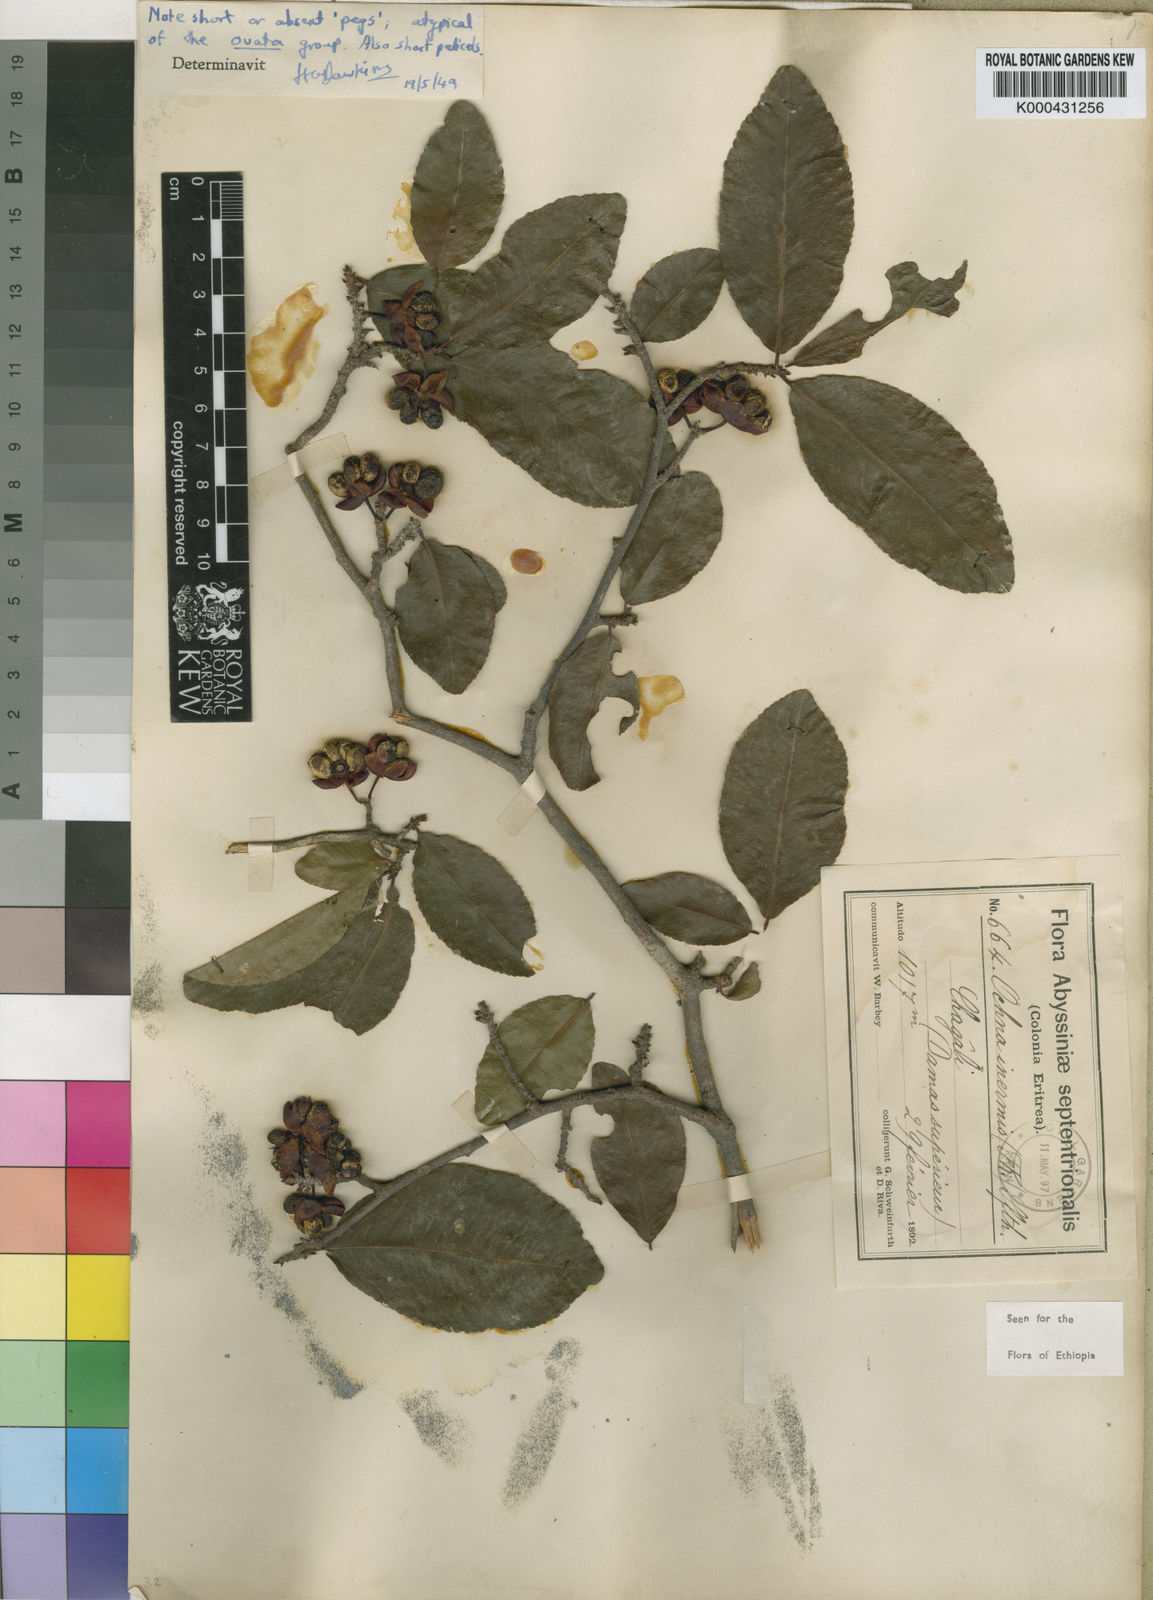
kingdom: Plantae
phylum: Tracheophyta
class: Magnoliopsida
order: Malpighiales
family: Ochnaceae
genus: Ochna
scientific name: Ochna inermis
